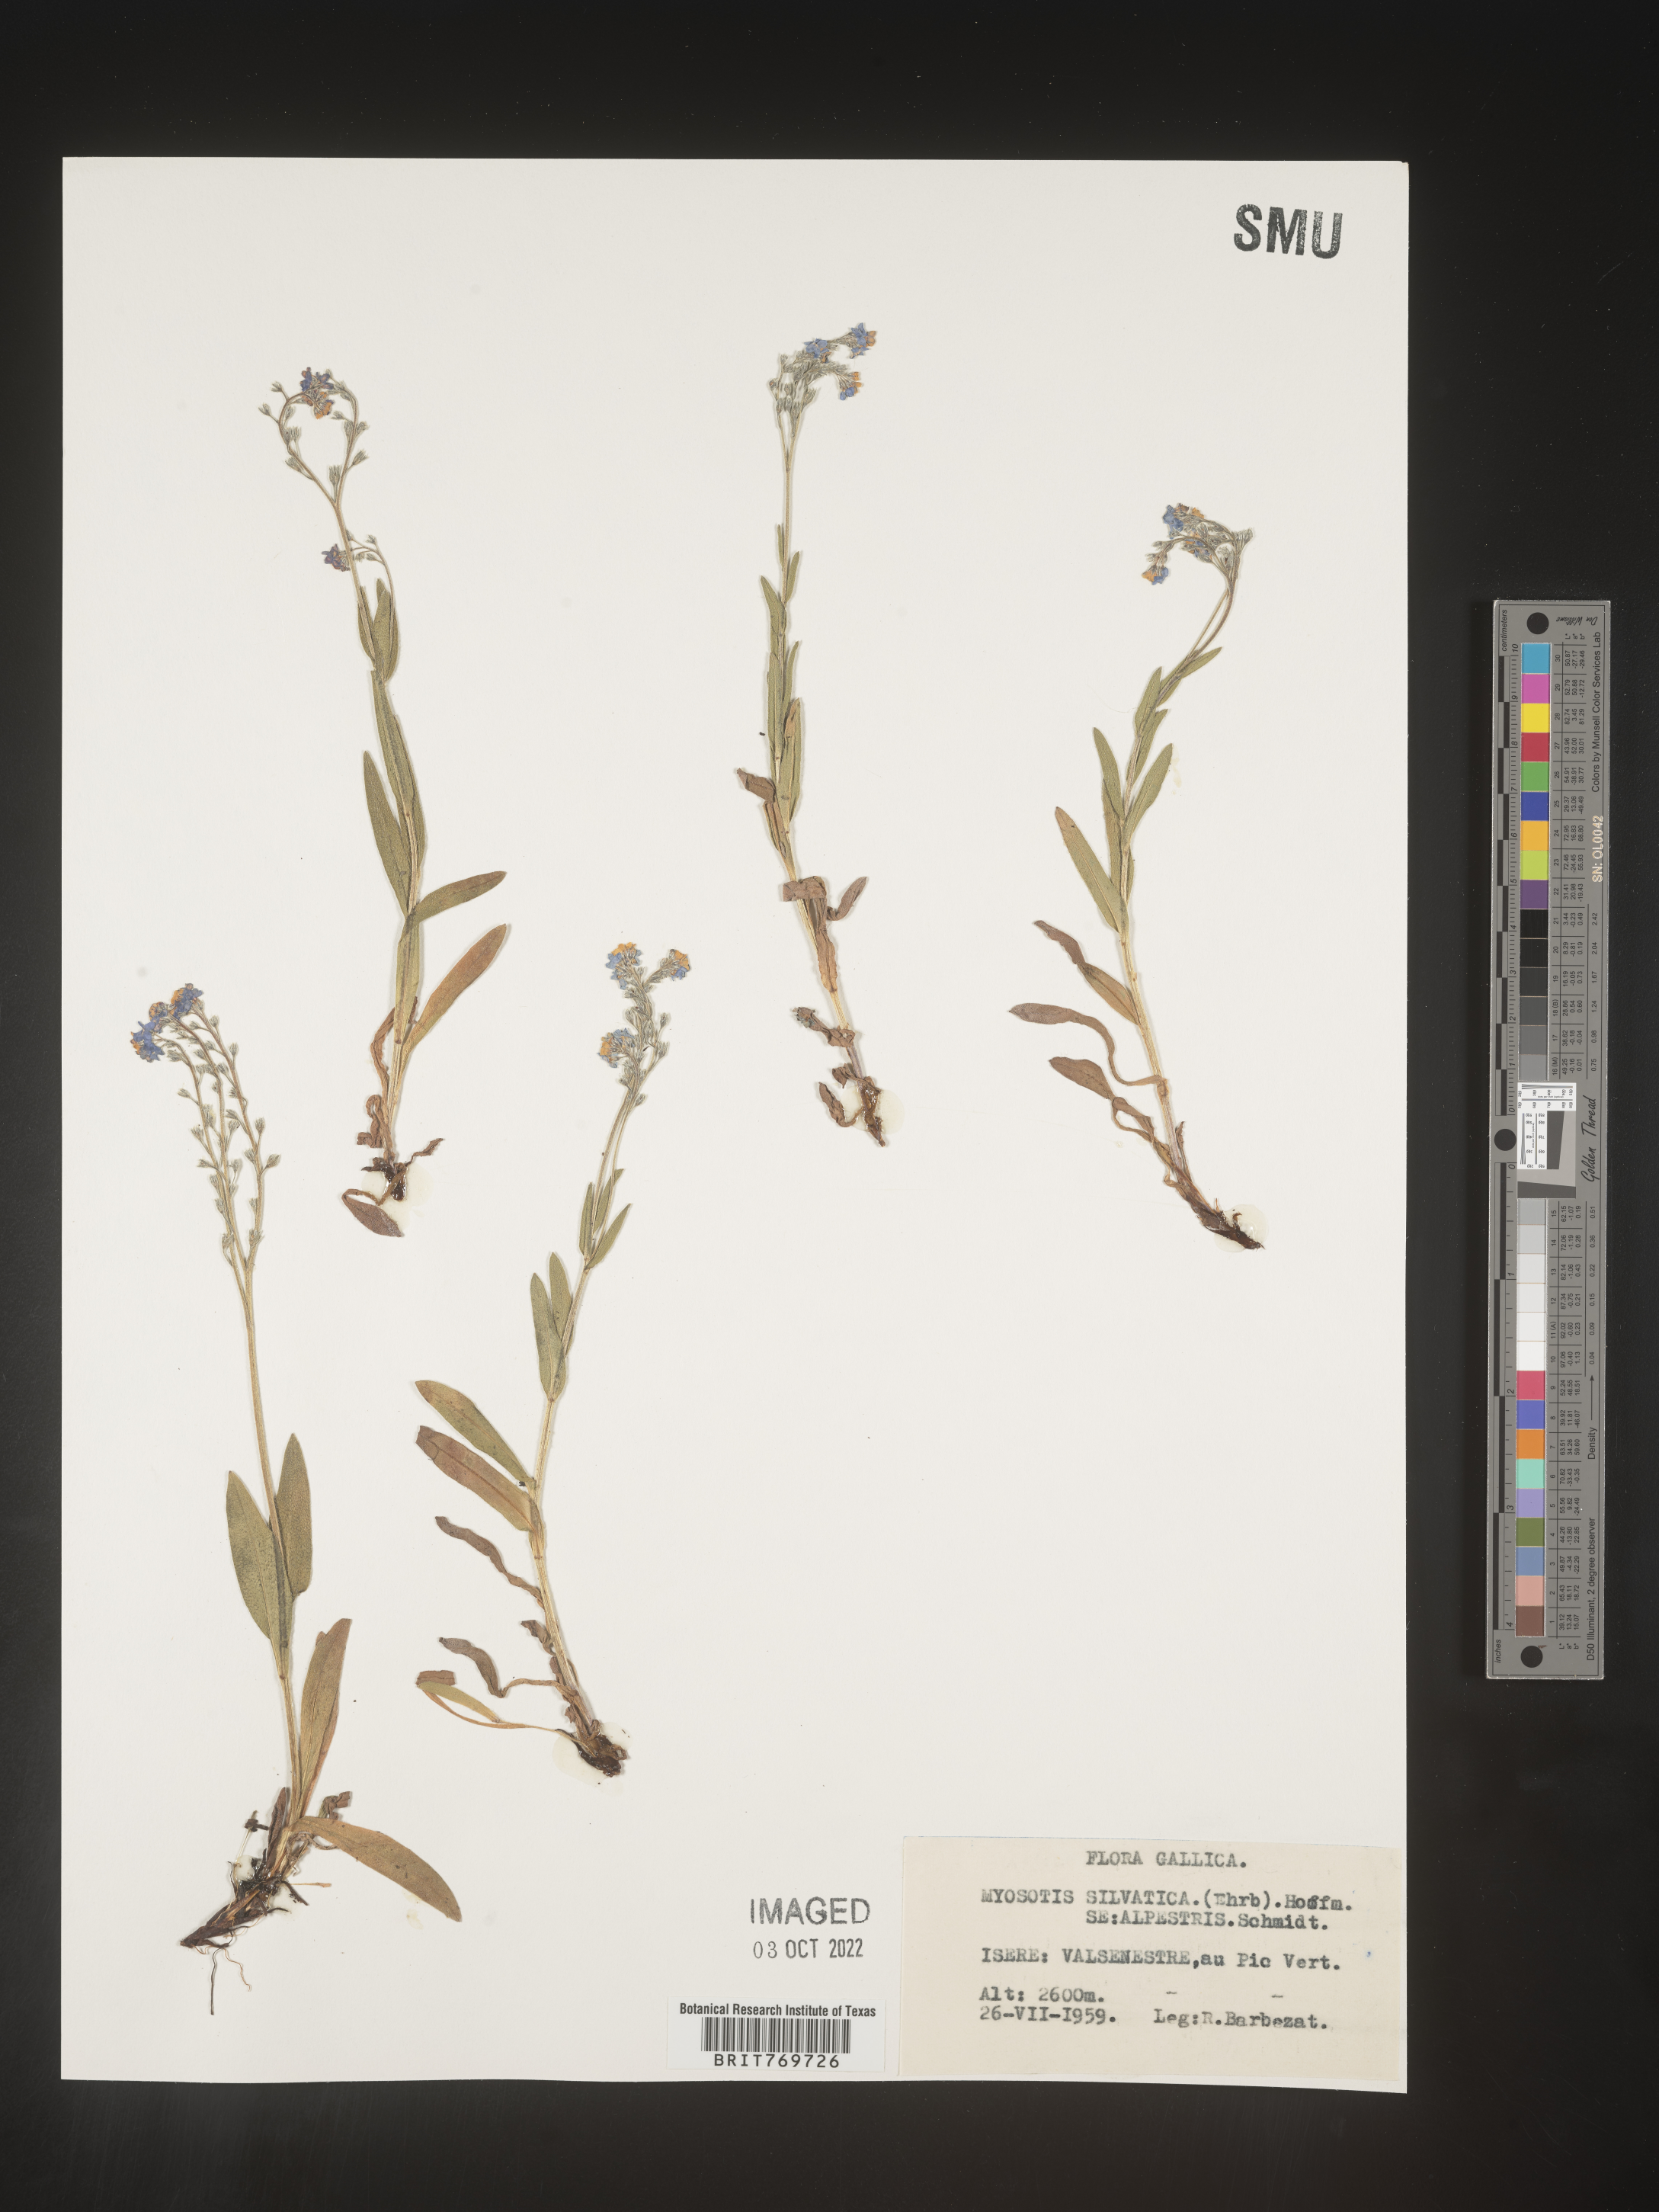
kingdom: Plantae
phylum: Tracheophyta
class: Magnoliopsida
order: Boraginales
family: Boraginaceae
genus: Myosotis
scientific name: Myosotis
